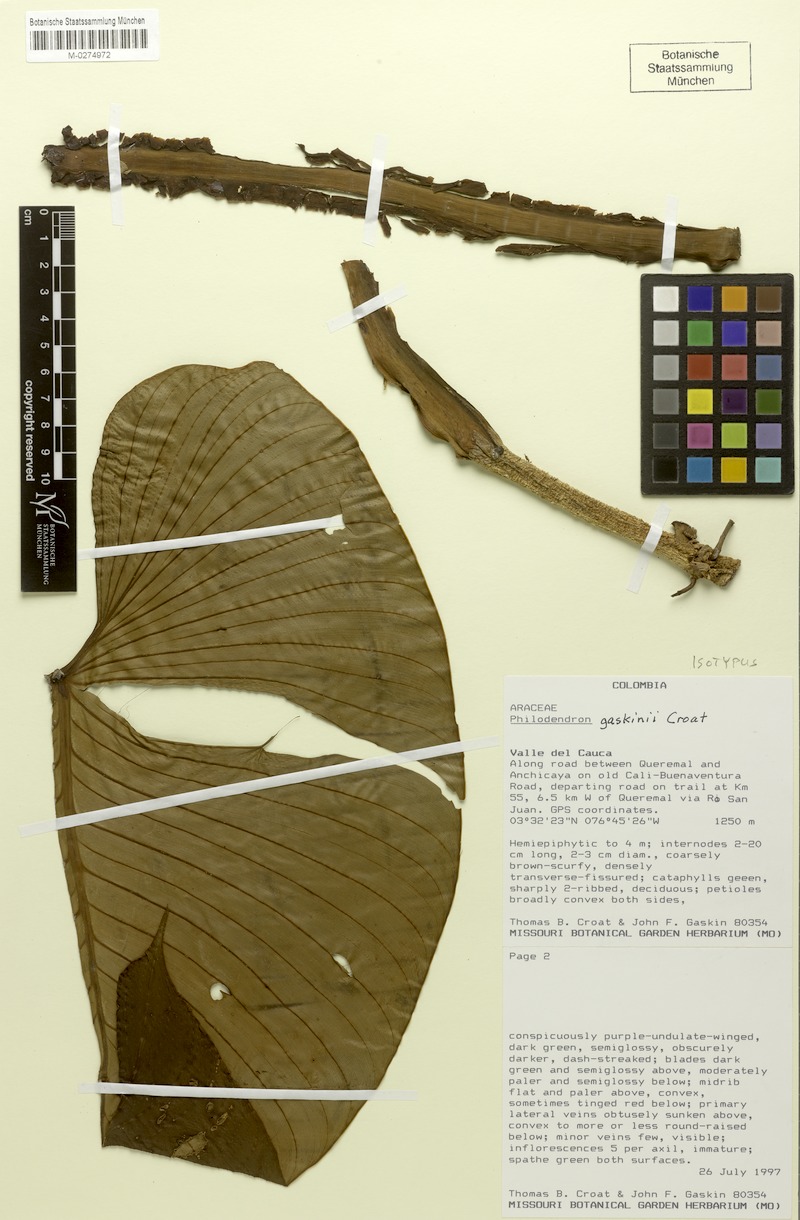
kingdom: Plantae
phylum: Tracheophyta
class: Liliopsida
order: Alismatales
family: Araceae
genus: Philodendron
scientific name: Philodendron gaskinii
